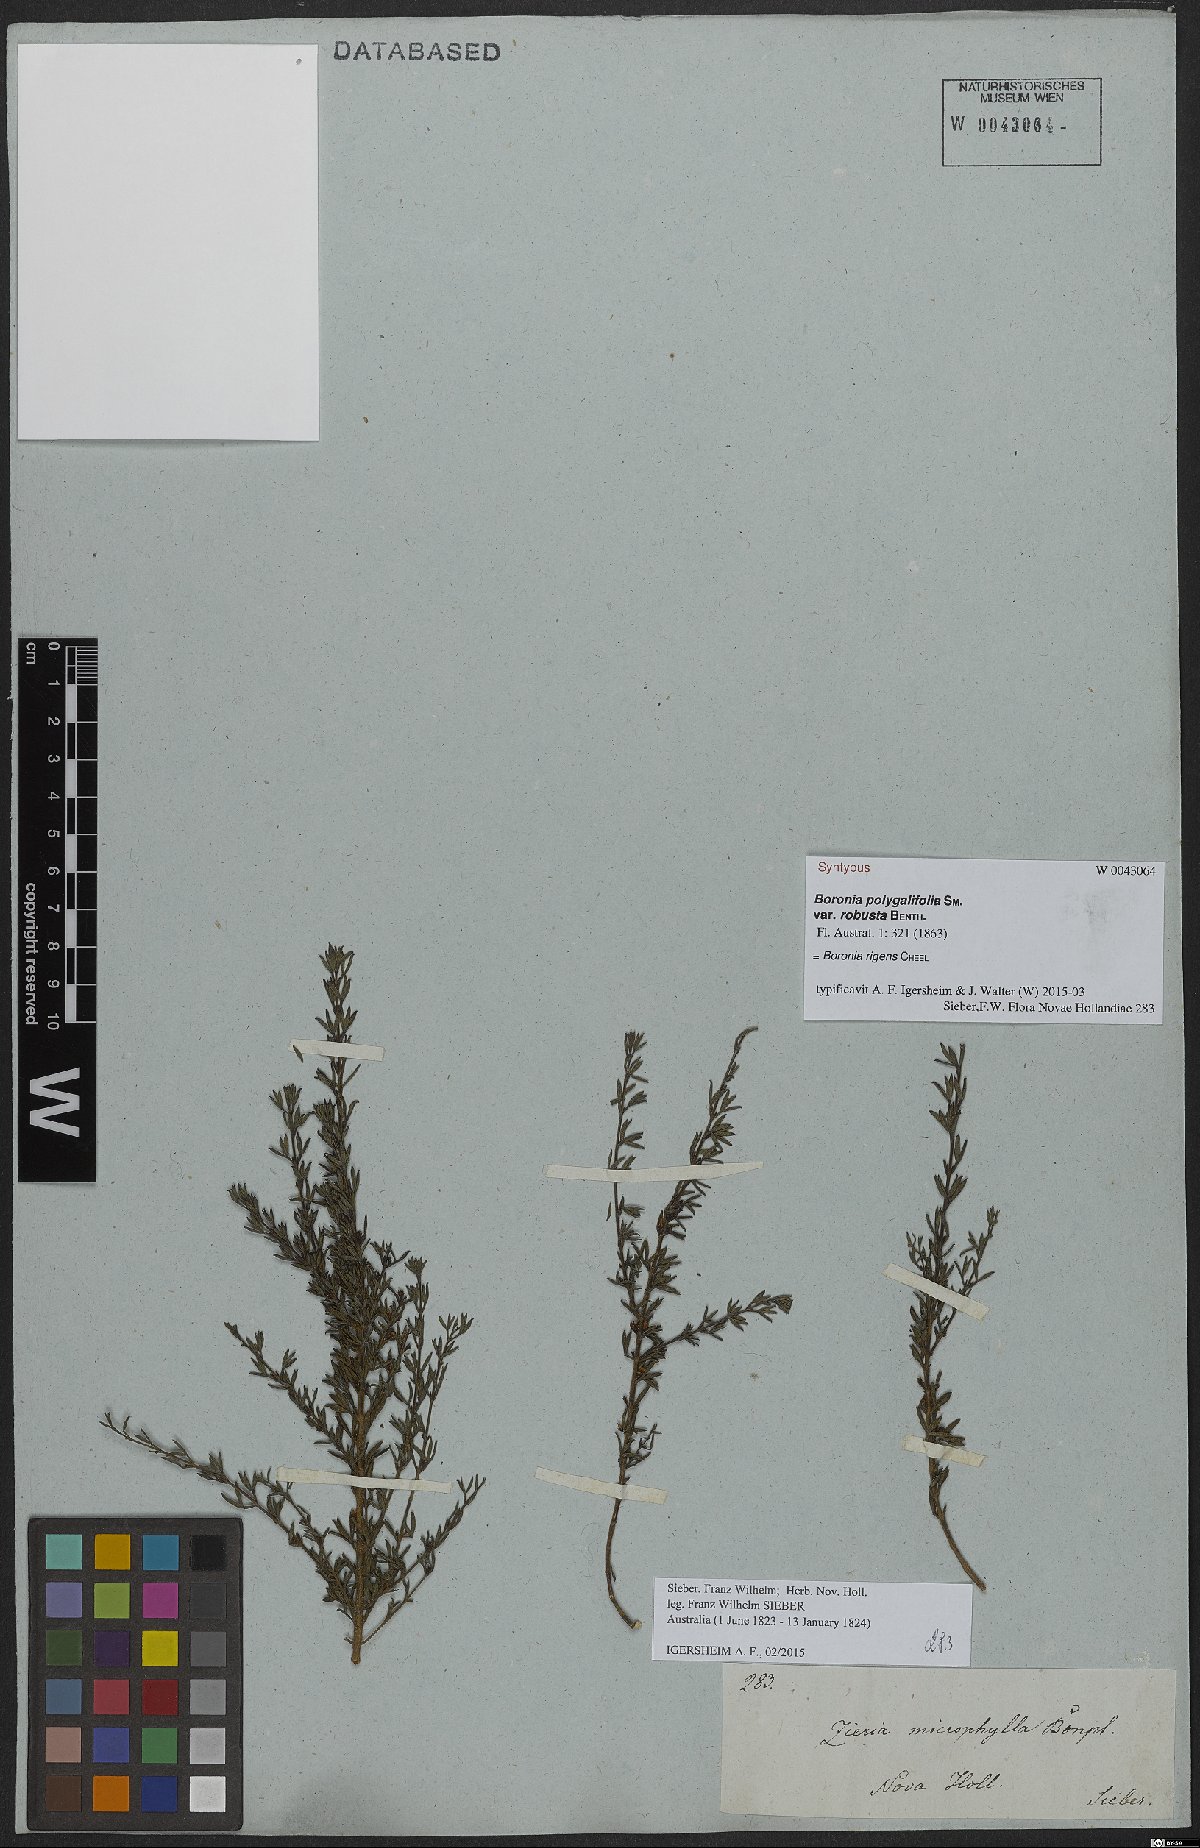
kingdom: Plantae
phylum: Tracheophyta
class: Magnoliopsida
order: Sapindales
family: Rutaceae
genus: Cyanothamnus
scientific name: Cyanothamnus rigens
